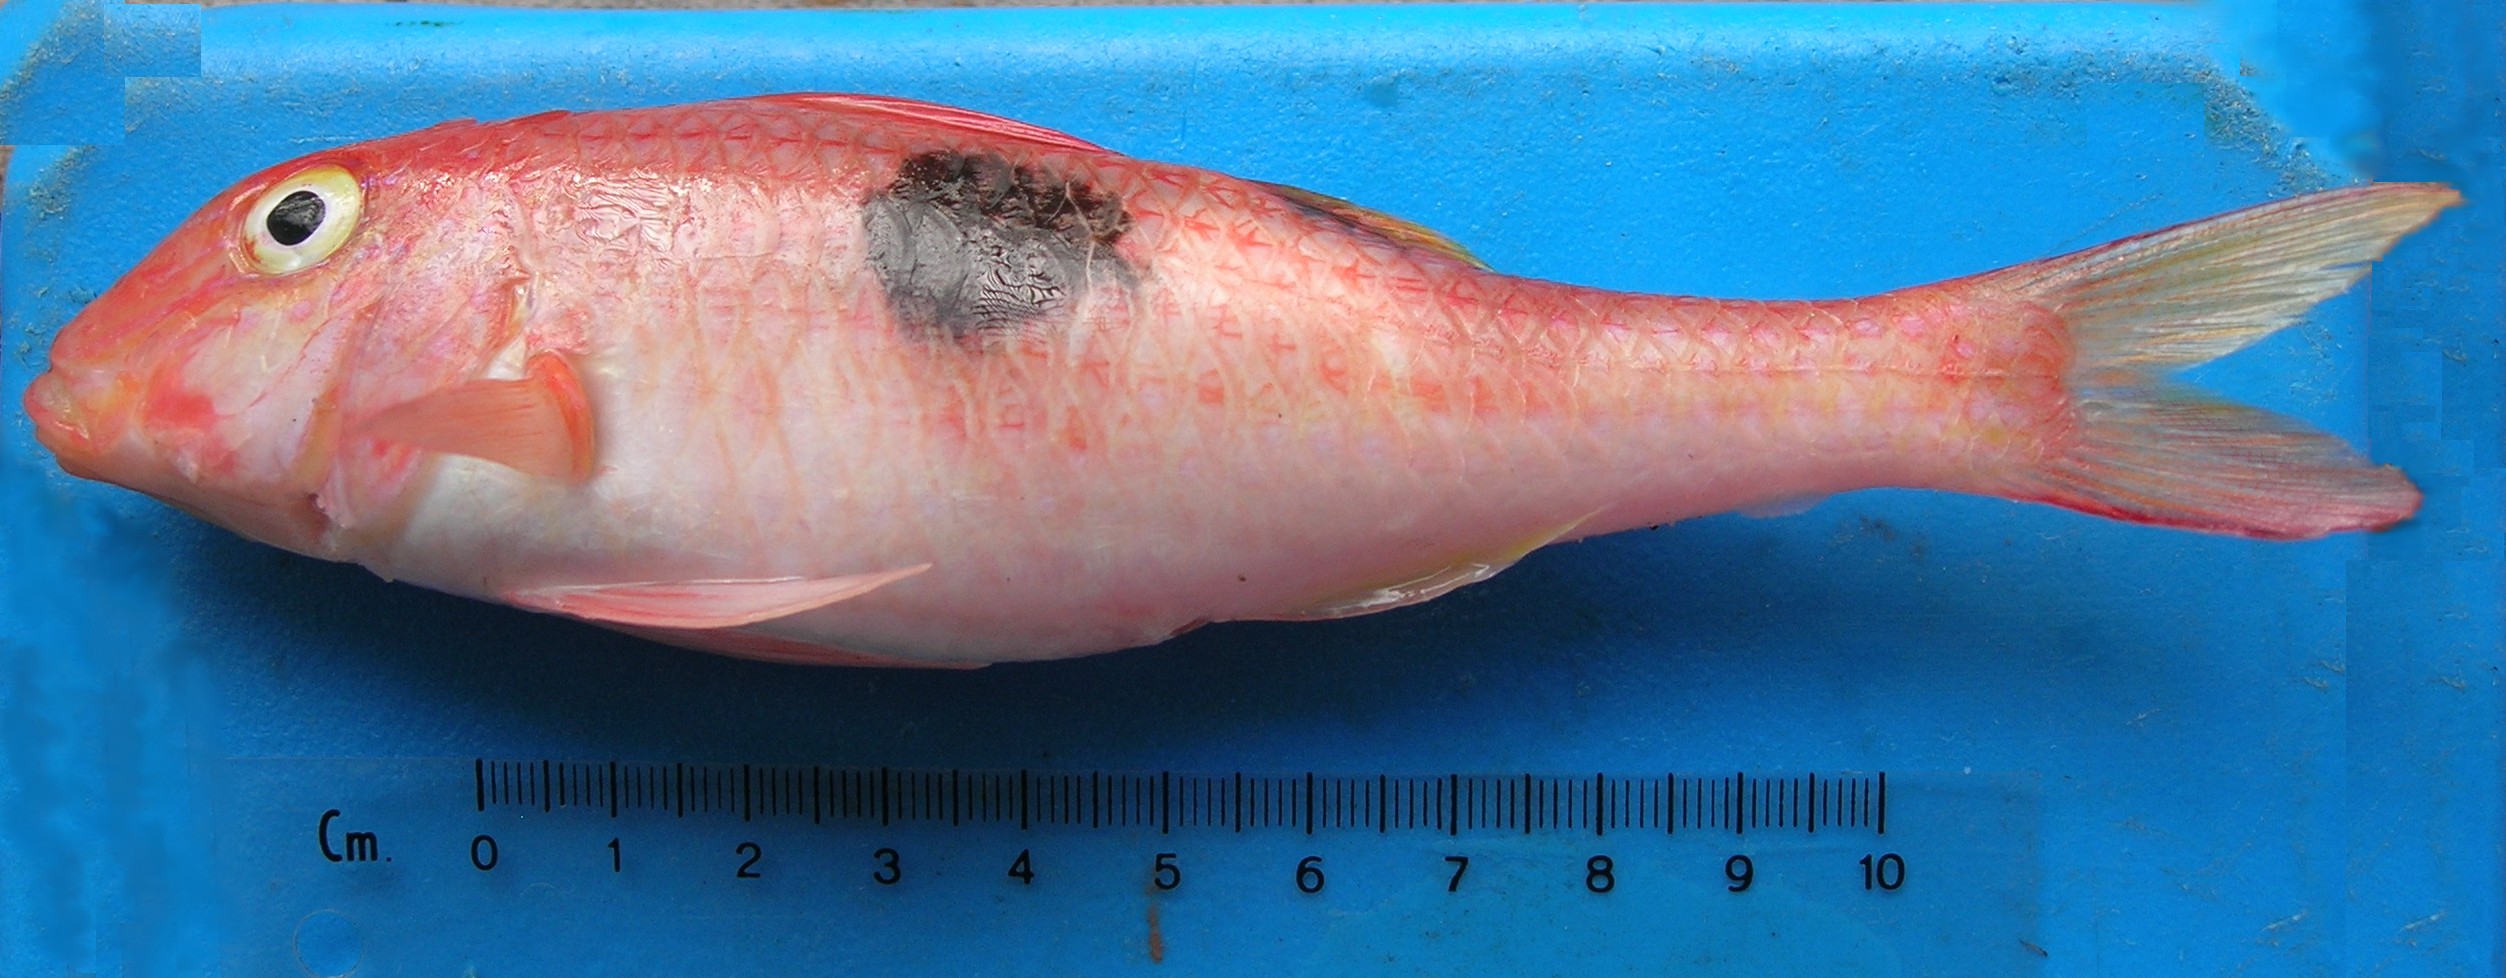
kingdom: Animalia
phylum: Chordata
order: Perciformes
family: Mullidae
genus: Parupeneus
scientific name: Parupeneus pleurostigma
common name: Sidespot goatfish
